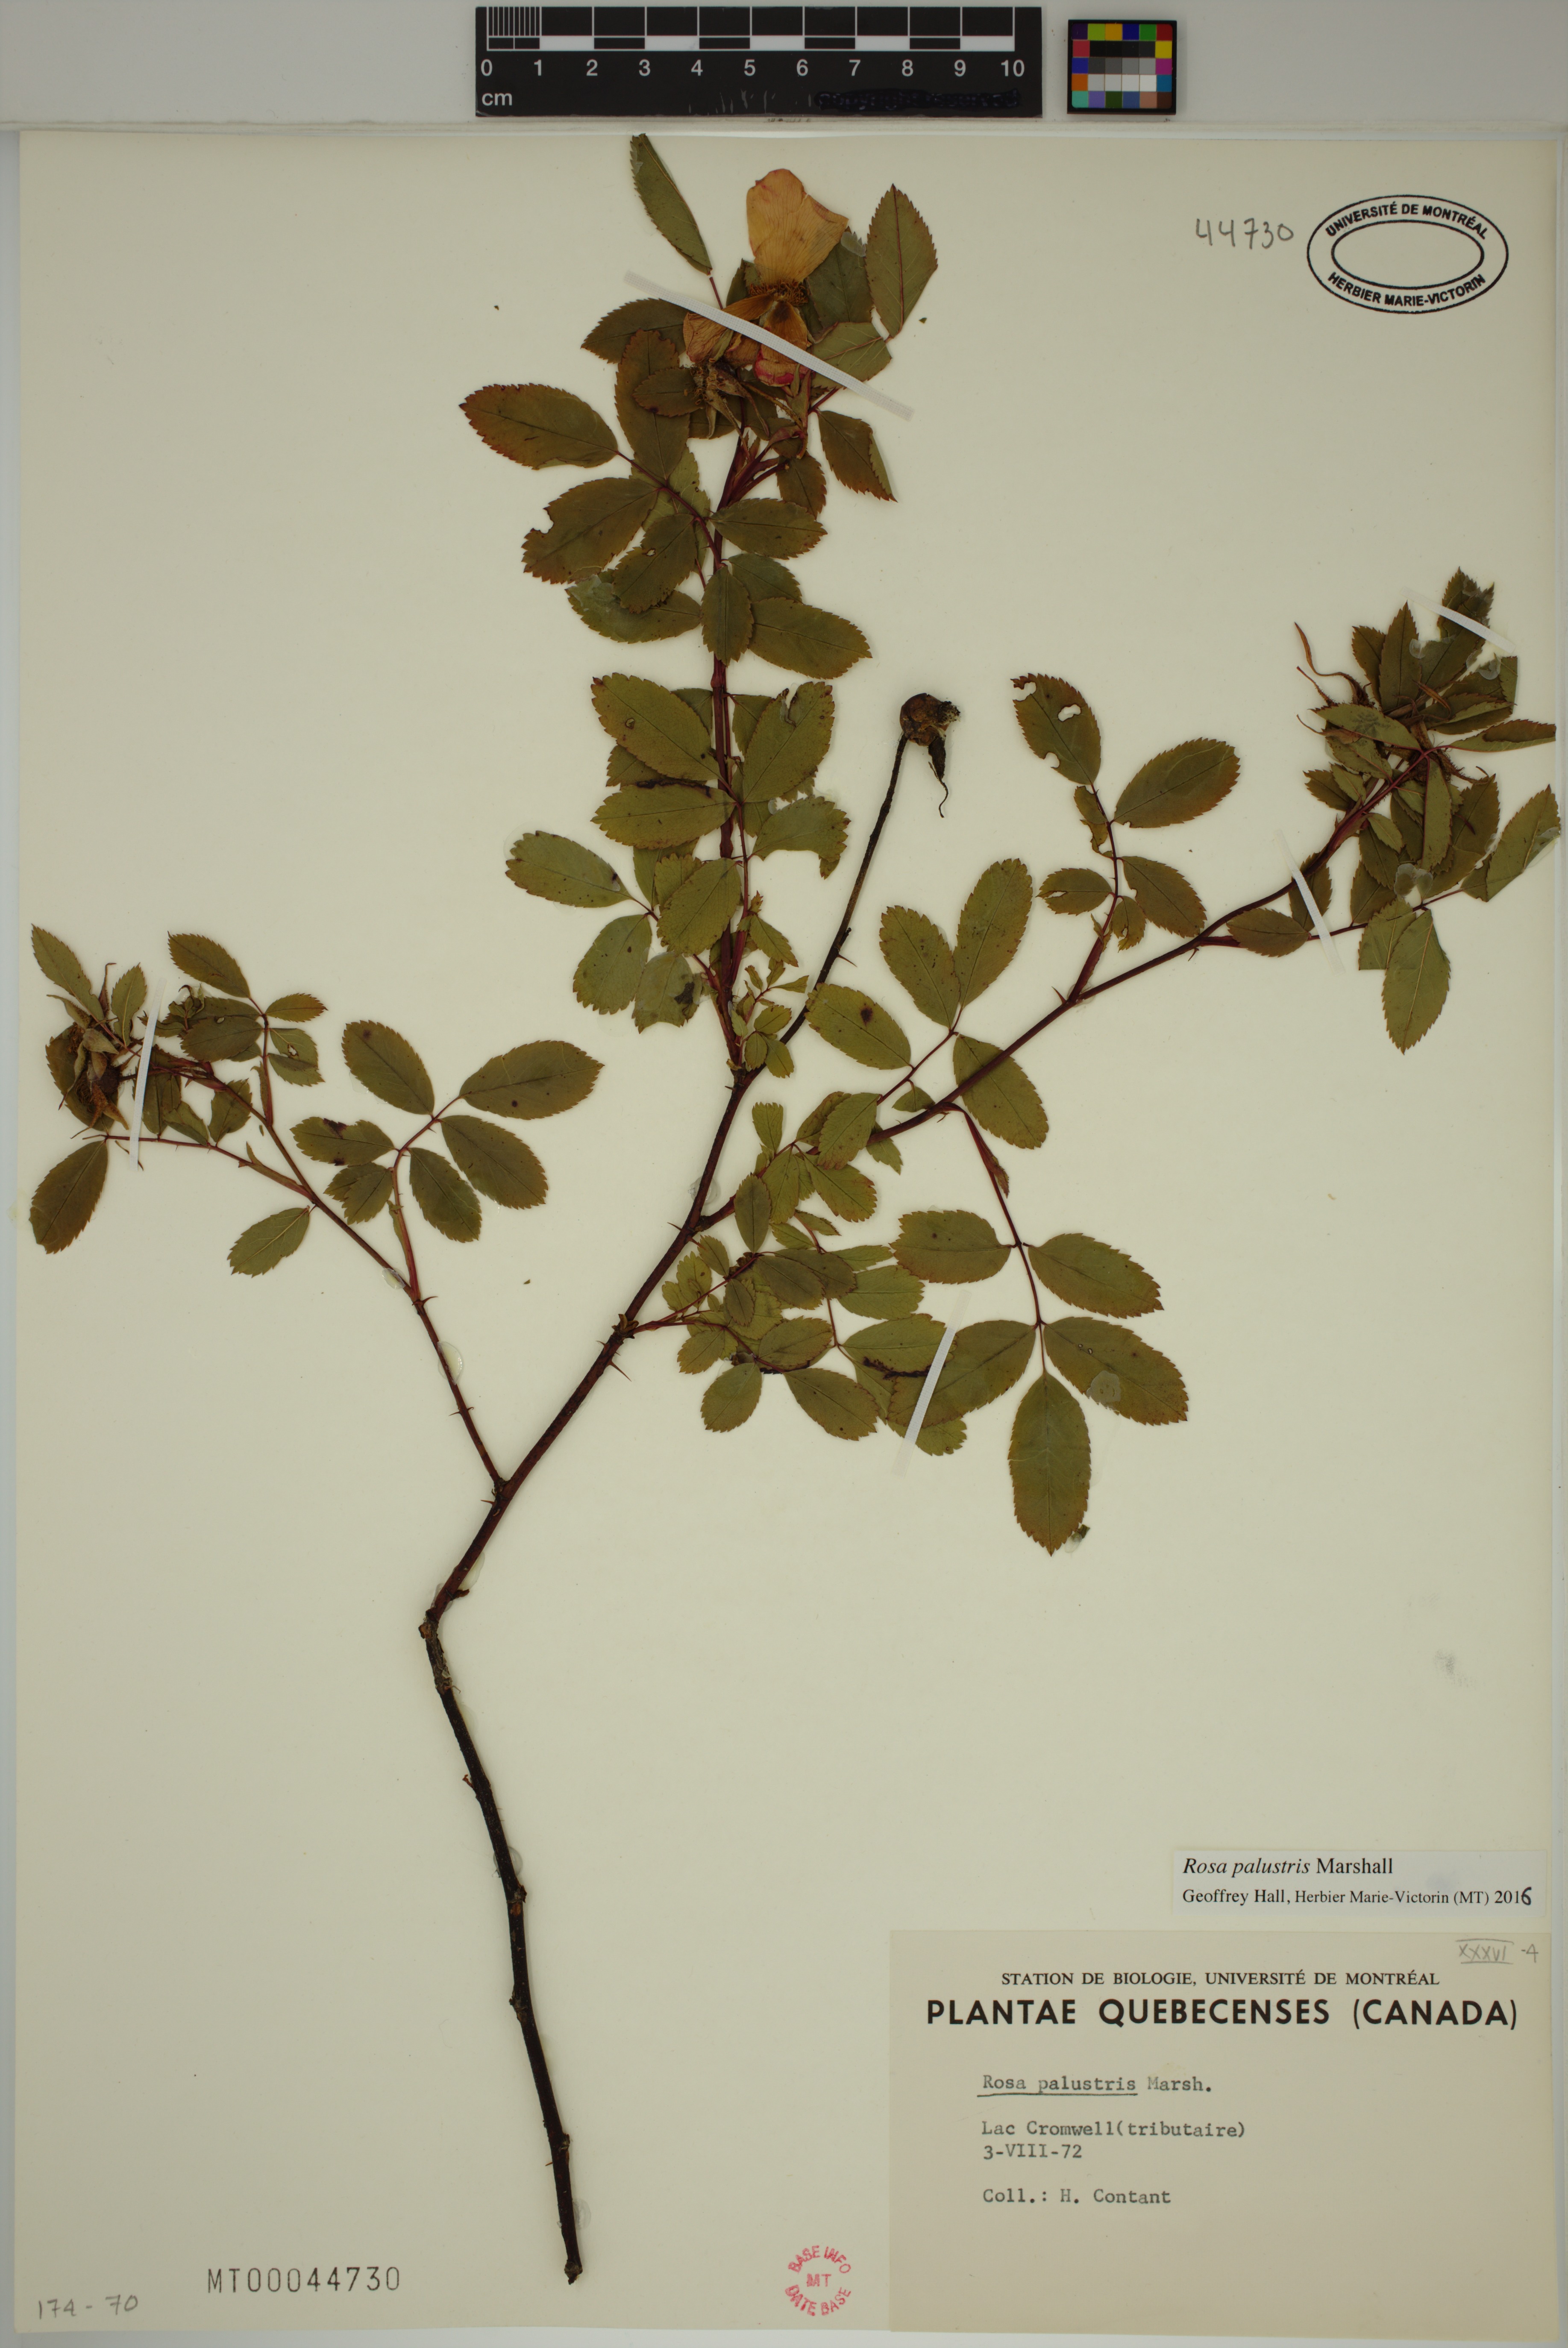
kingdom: Plantae
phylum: Tracheophyta
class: Magnoliopsida
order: Rosales
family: Rosaceae
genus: Rosa
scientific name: Rosa palustris
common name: Swamp rose
